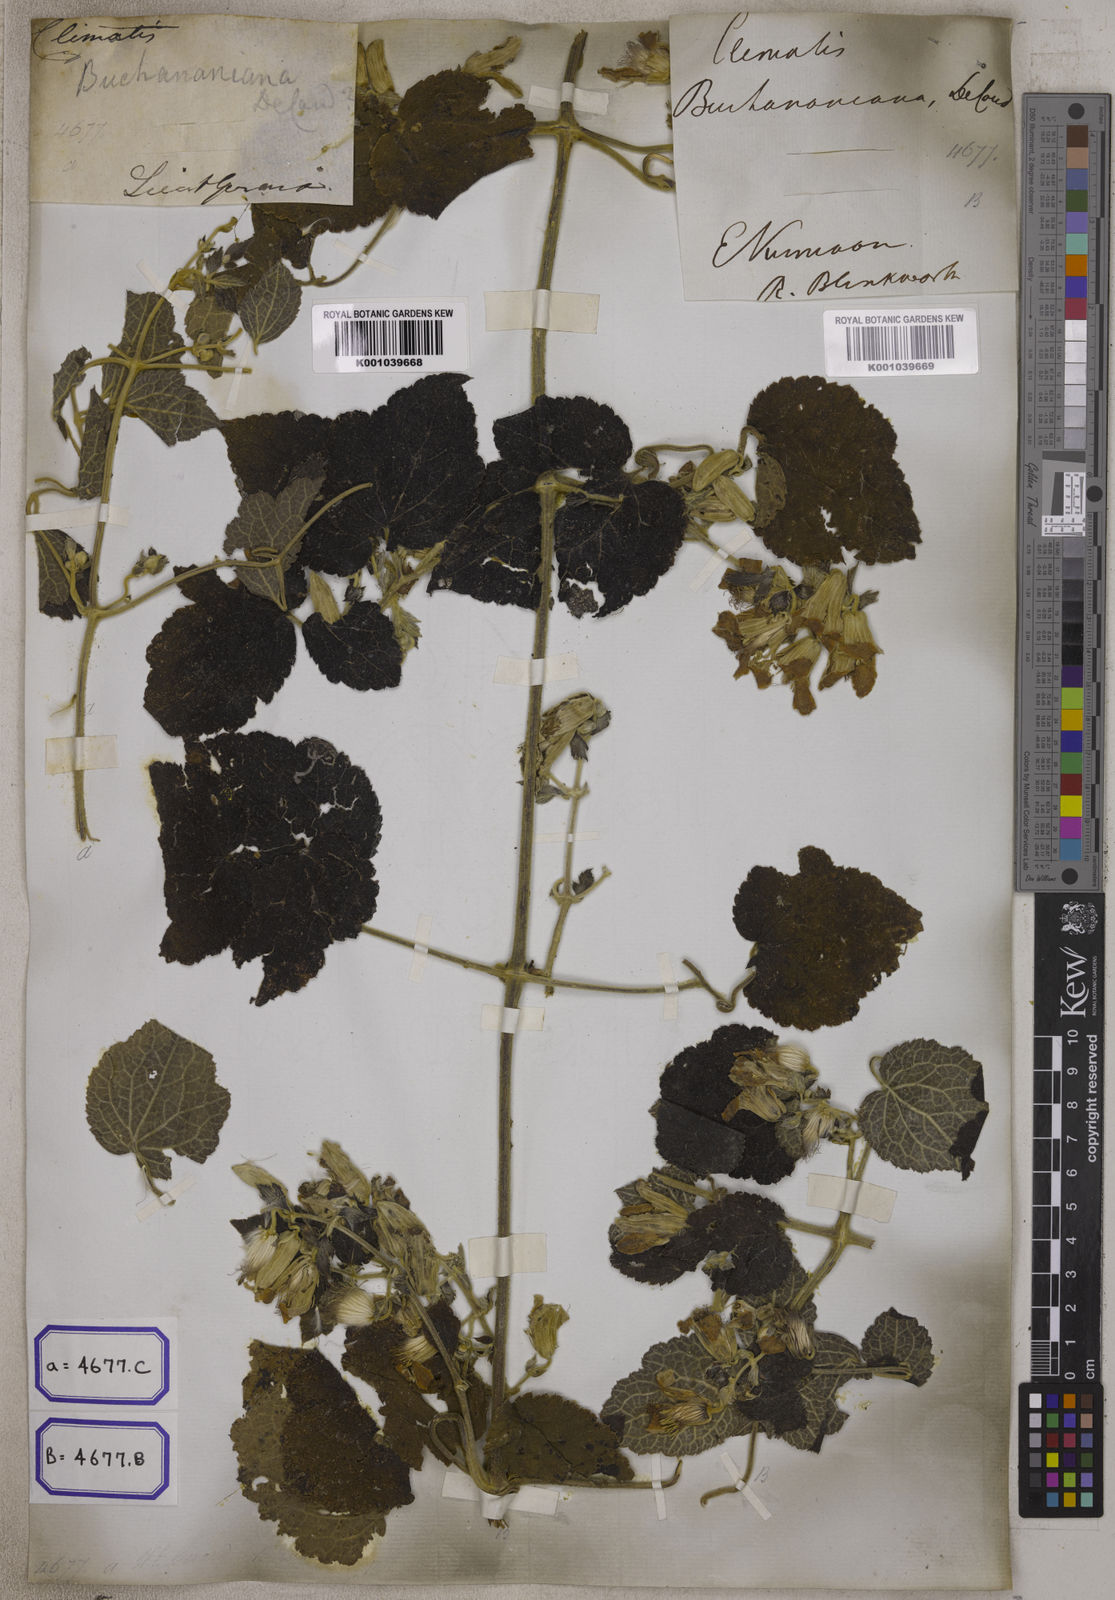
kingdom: Plantae
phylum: Tracheophyta
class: Magnoliopsida
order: Ranunculales
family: Ranunculaceae
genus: Clematis
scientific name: Clematis buchananiana
